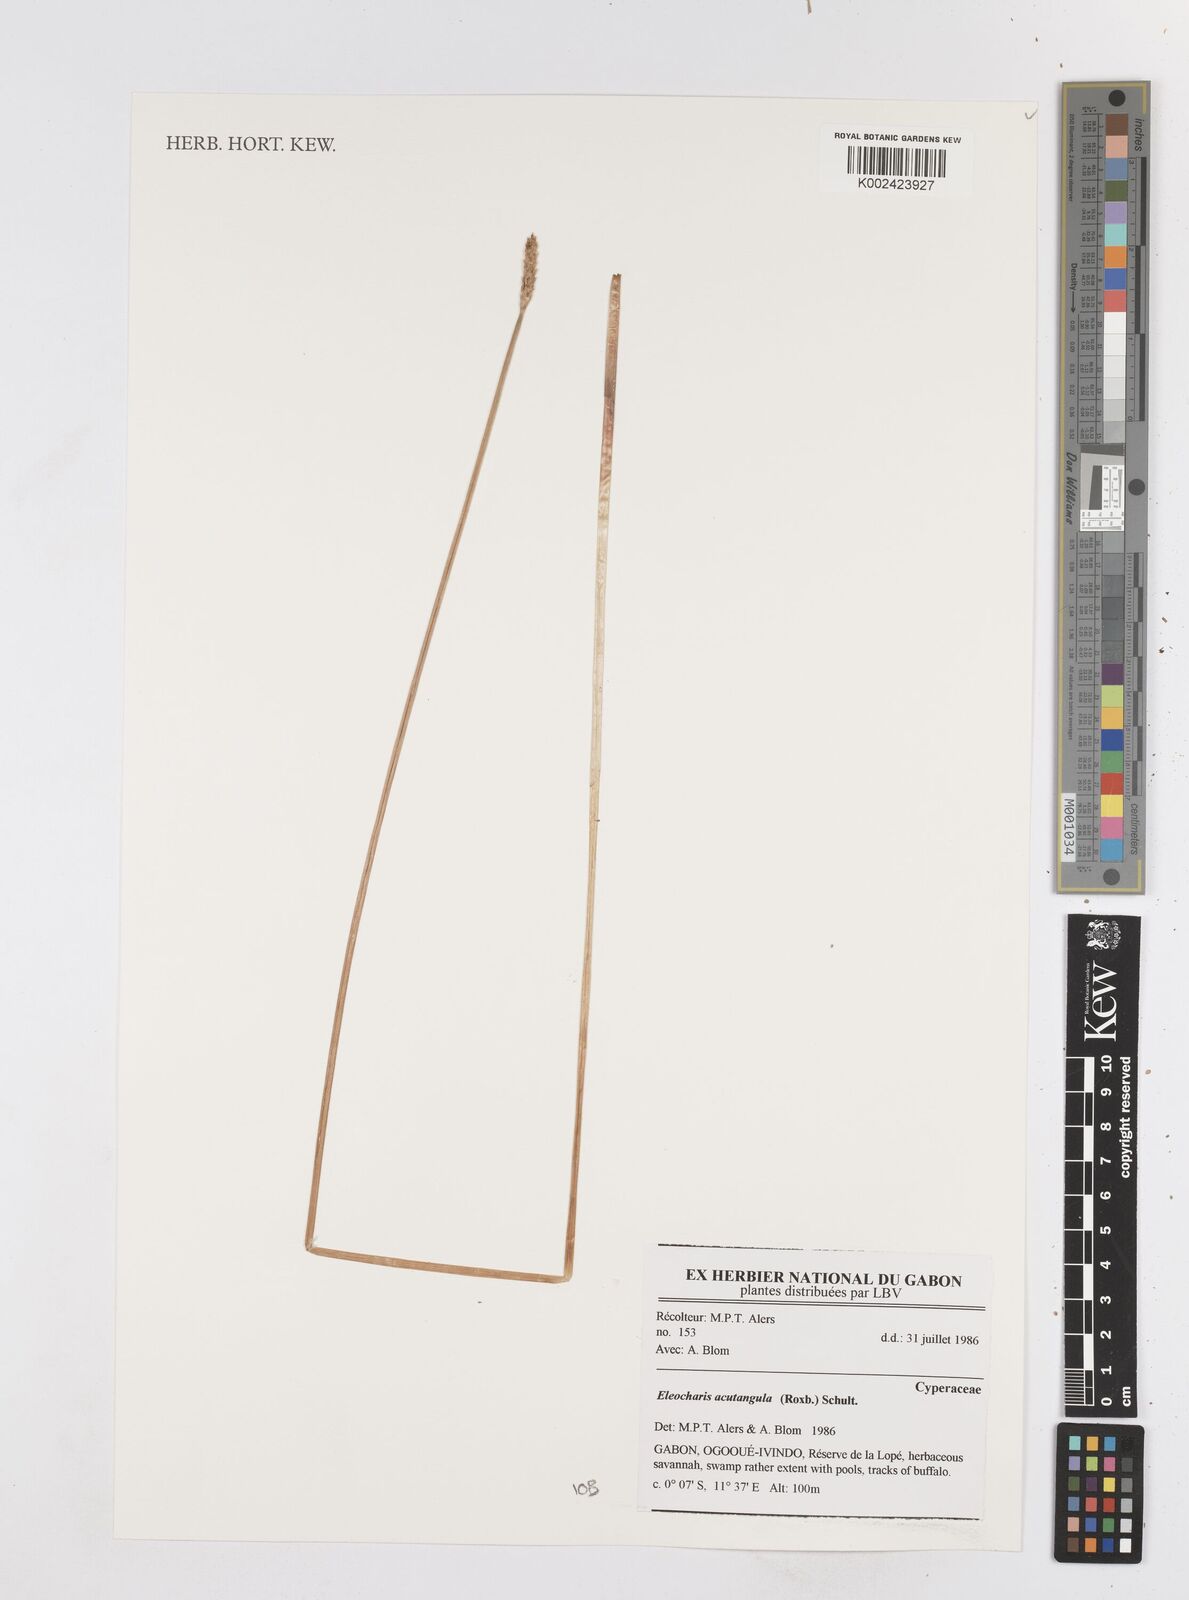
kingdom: Plantae
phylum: Tracheophyta
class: Liliopsida
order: Poales
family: Cyperaceae
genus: Eleocharis
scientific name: Eleocharis acutangula
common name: Acute spikerush
